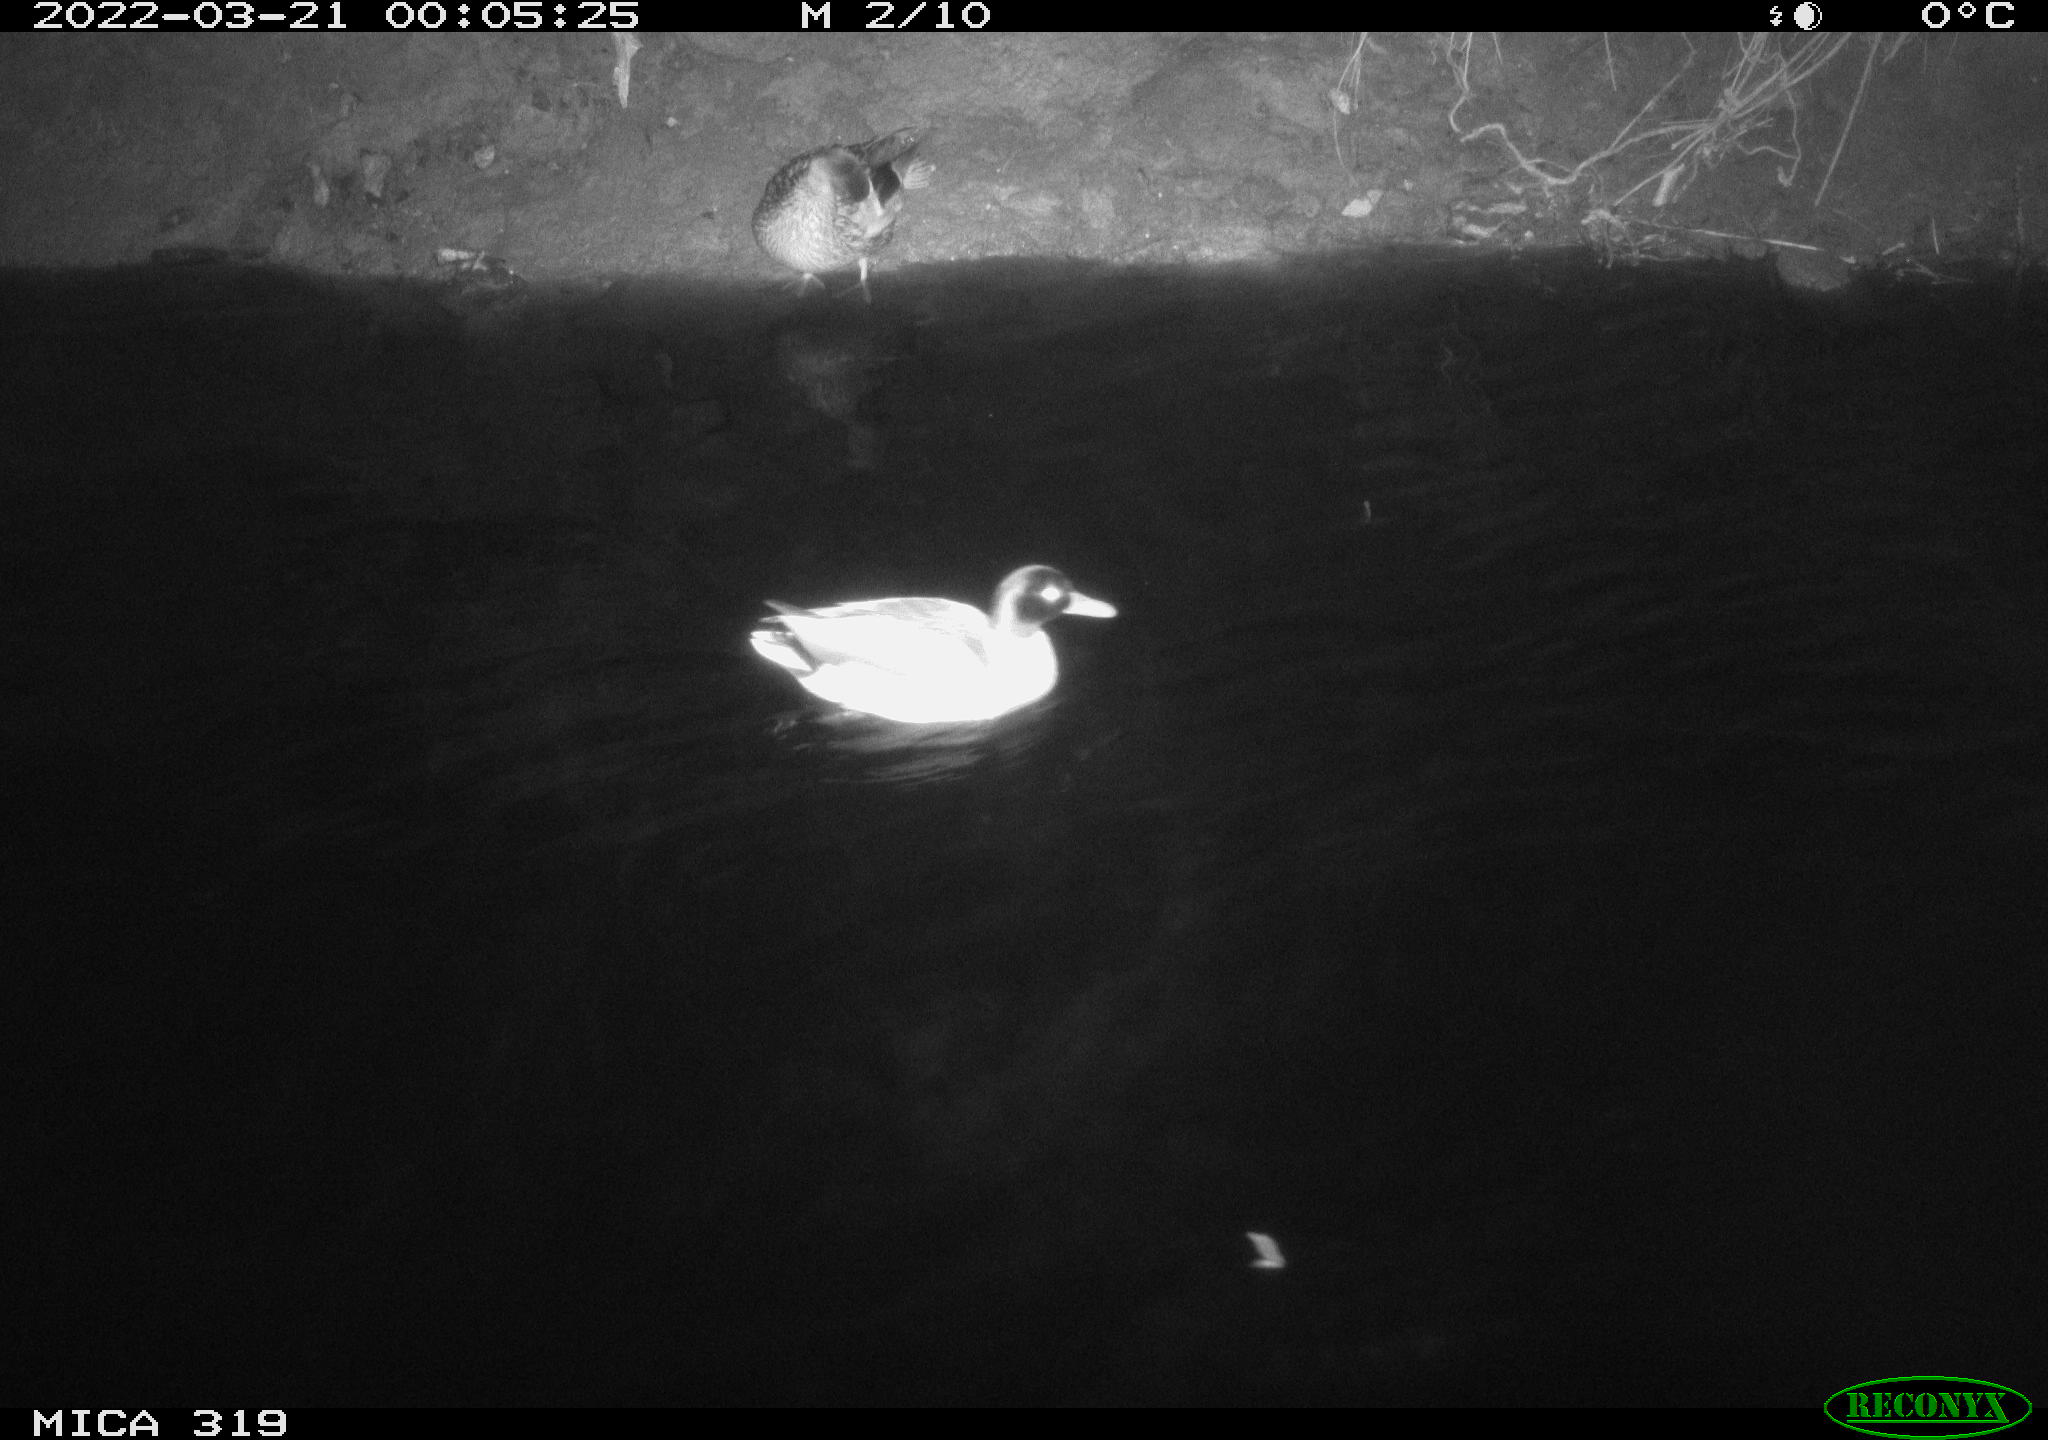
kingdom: Animalia
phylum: Chordata
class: Aves
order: Anseriformes
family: Anatidae
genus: Anas
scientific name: Anas platyrhynchos
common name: Mallard
